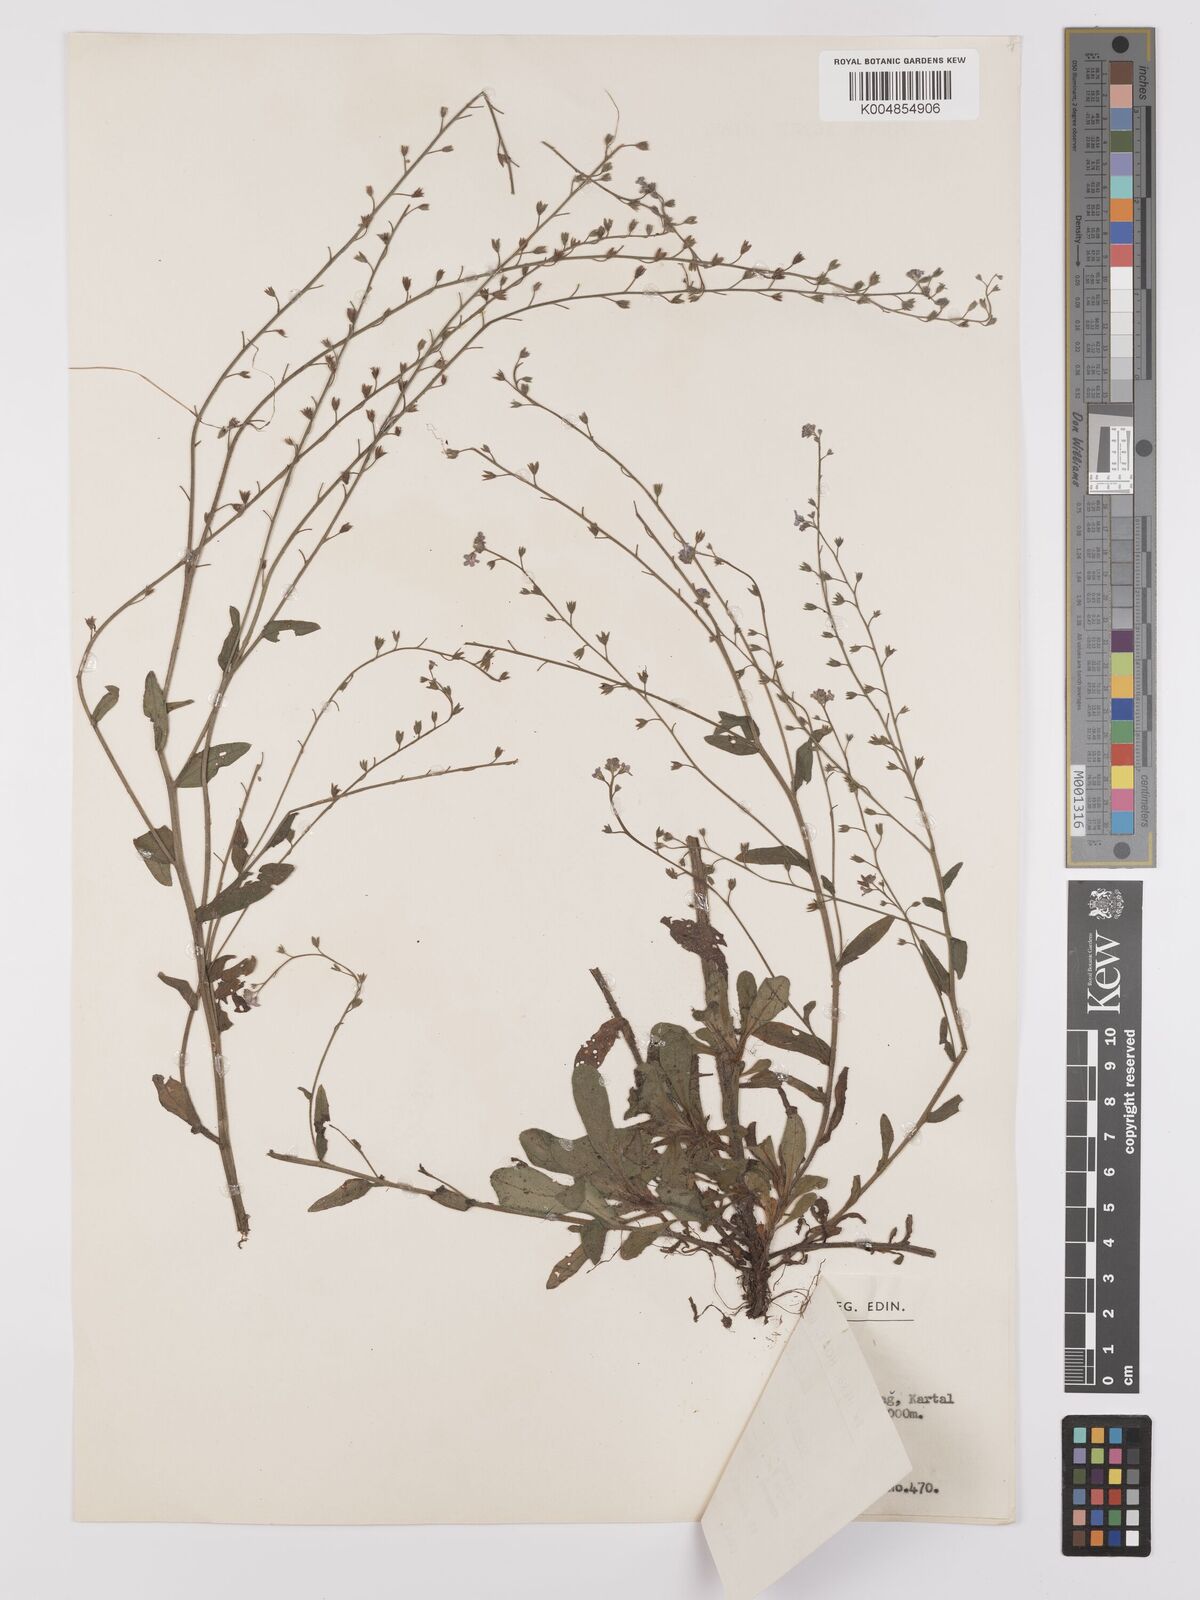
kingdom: Plantae
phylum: Tracheophyta
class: Magnoliopsida
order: Boraginales
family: Boraginaceae
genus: Myosotis
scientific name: Myosotis
